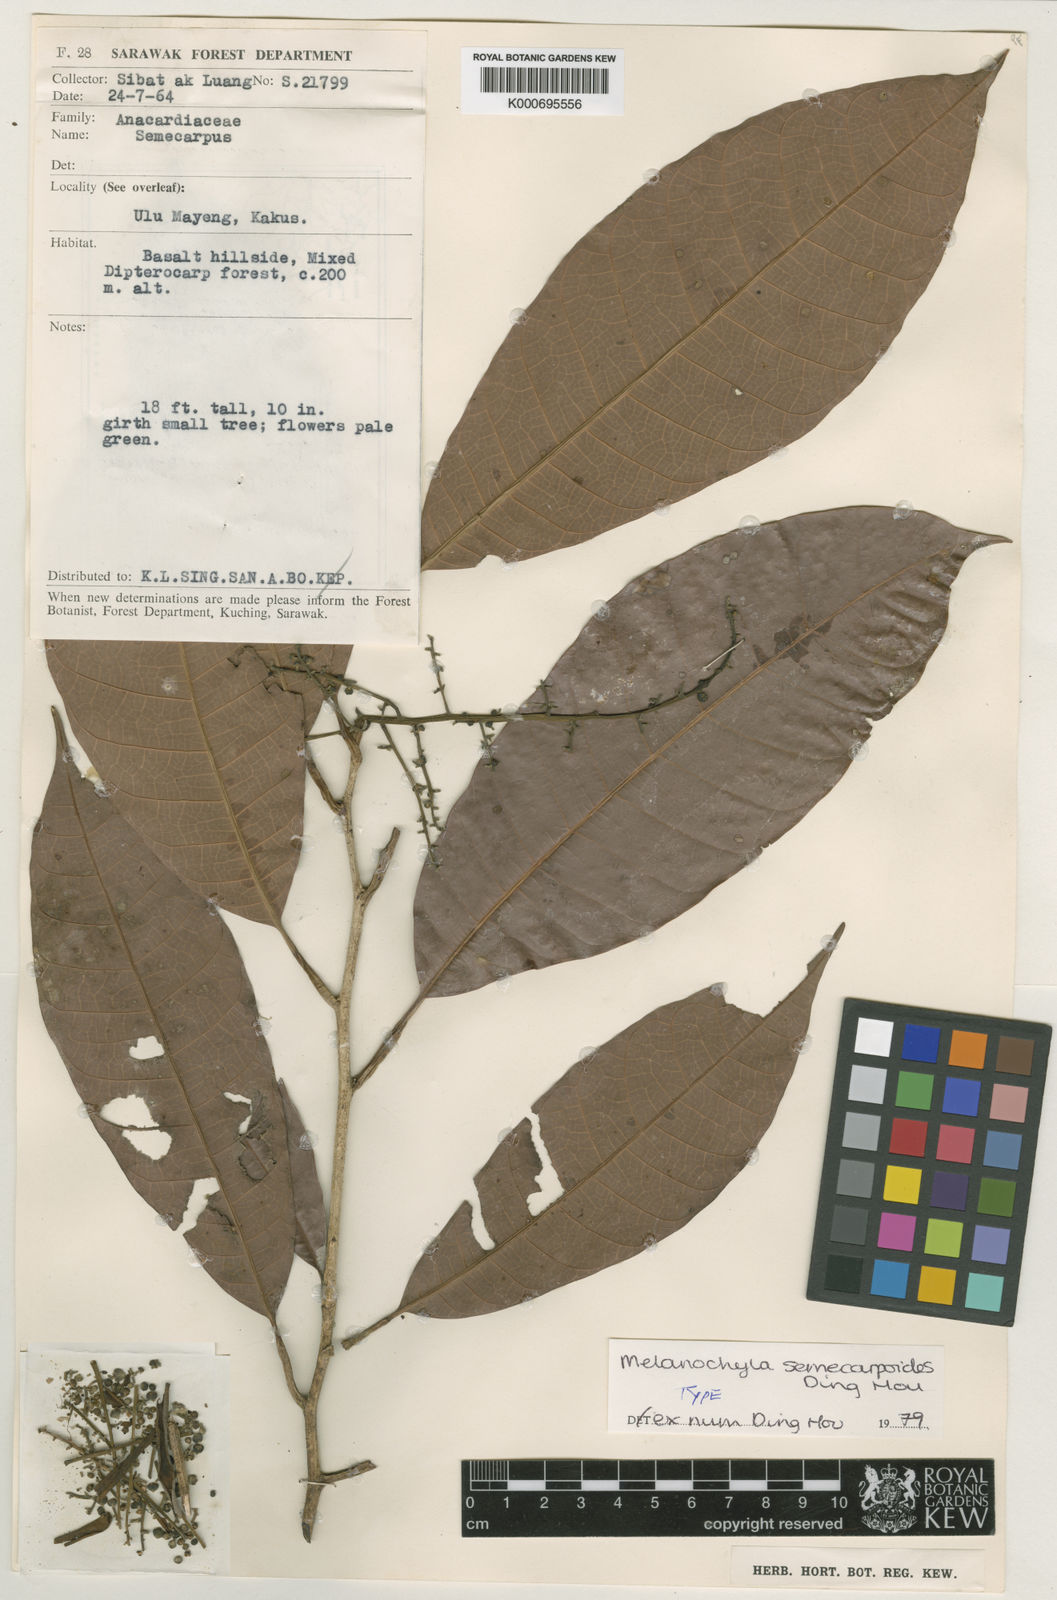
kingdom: Plantae
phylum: Tracheophyta
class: Magnoliopsida
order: Sapindales
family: Anacardiaceae
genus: Melanochyla
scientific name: Melanochyla semecarpoides
